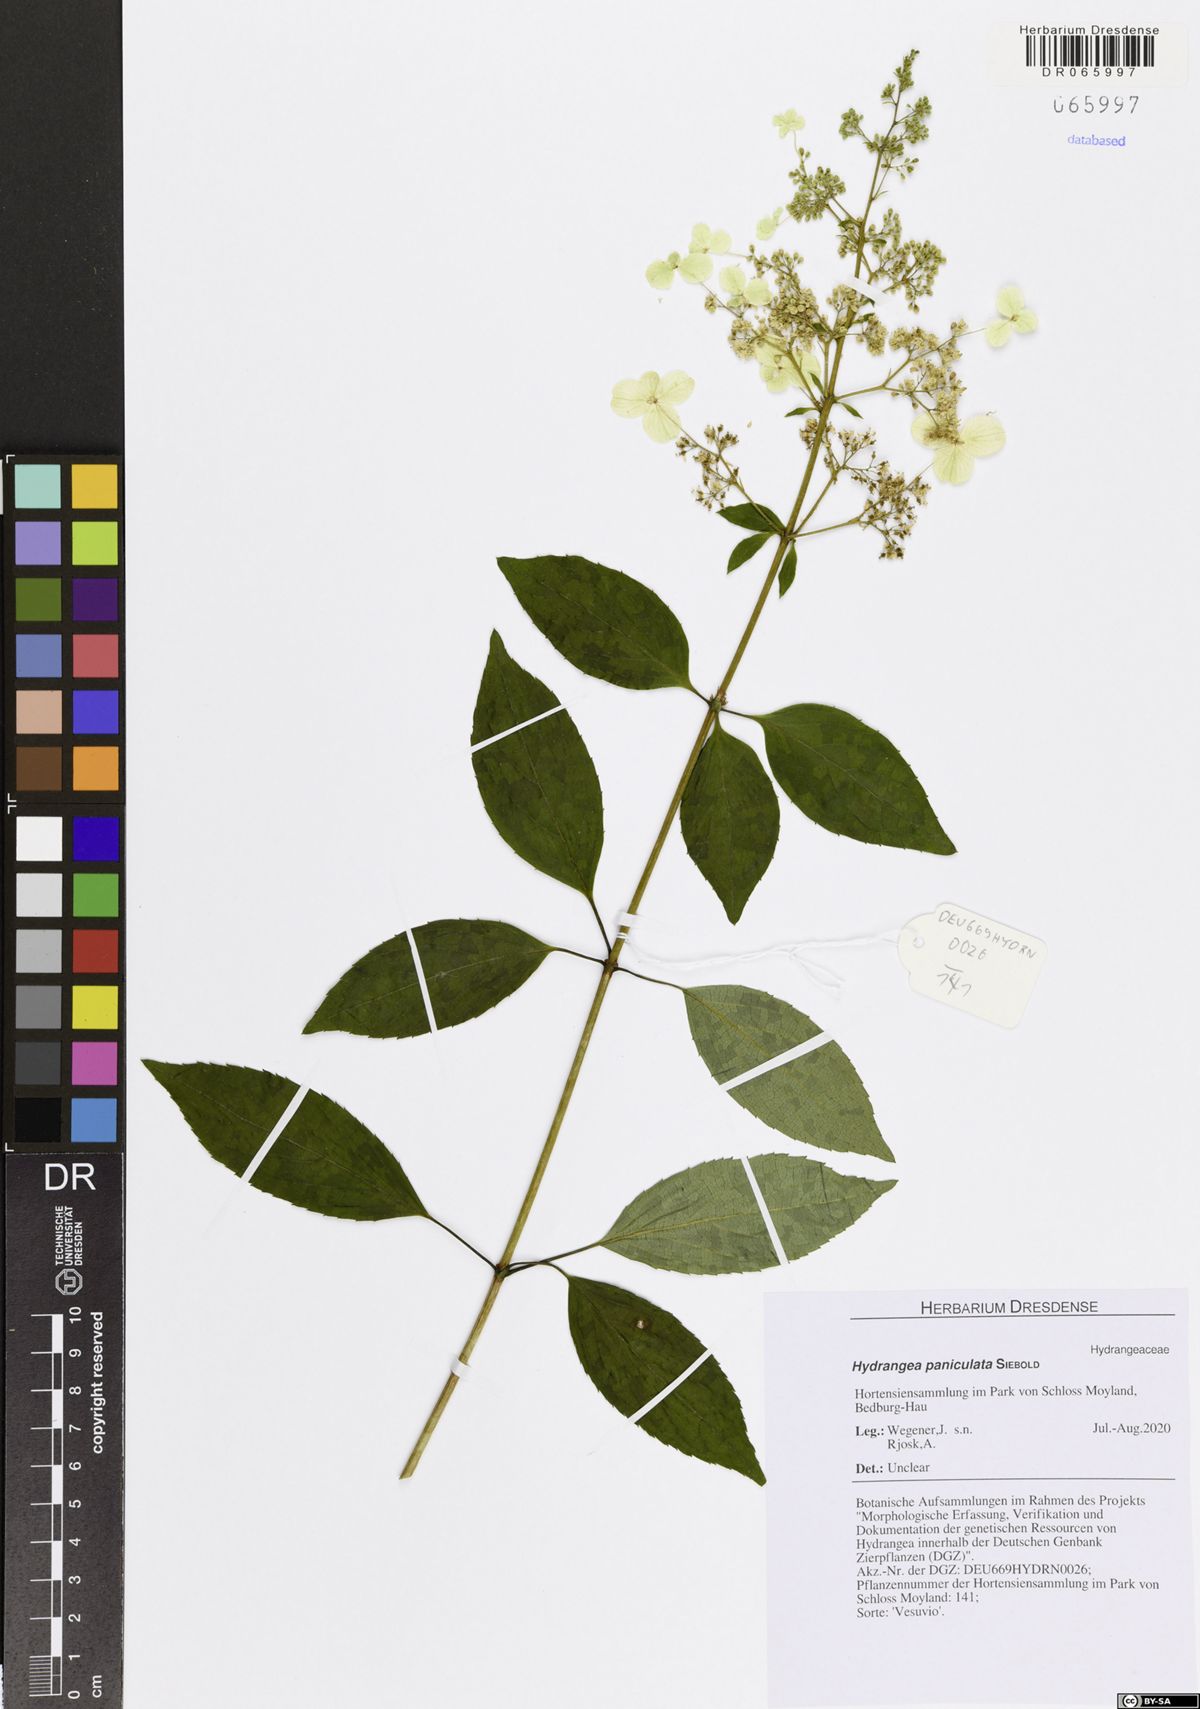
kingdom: Plantae
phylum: Tracheophyta
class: Magnoliopsida
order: Cornales
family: Hydrangeaceae
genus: Hydrangea
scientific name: Hydrangea paniculata
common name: Panicled hydrangea
